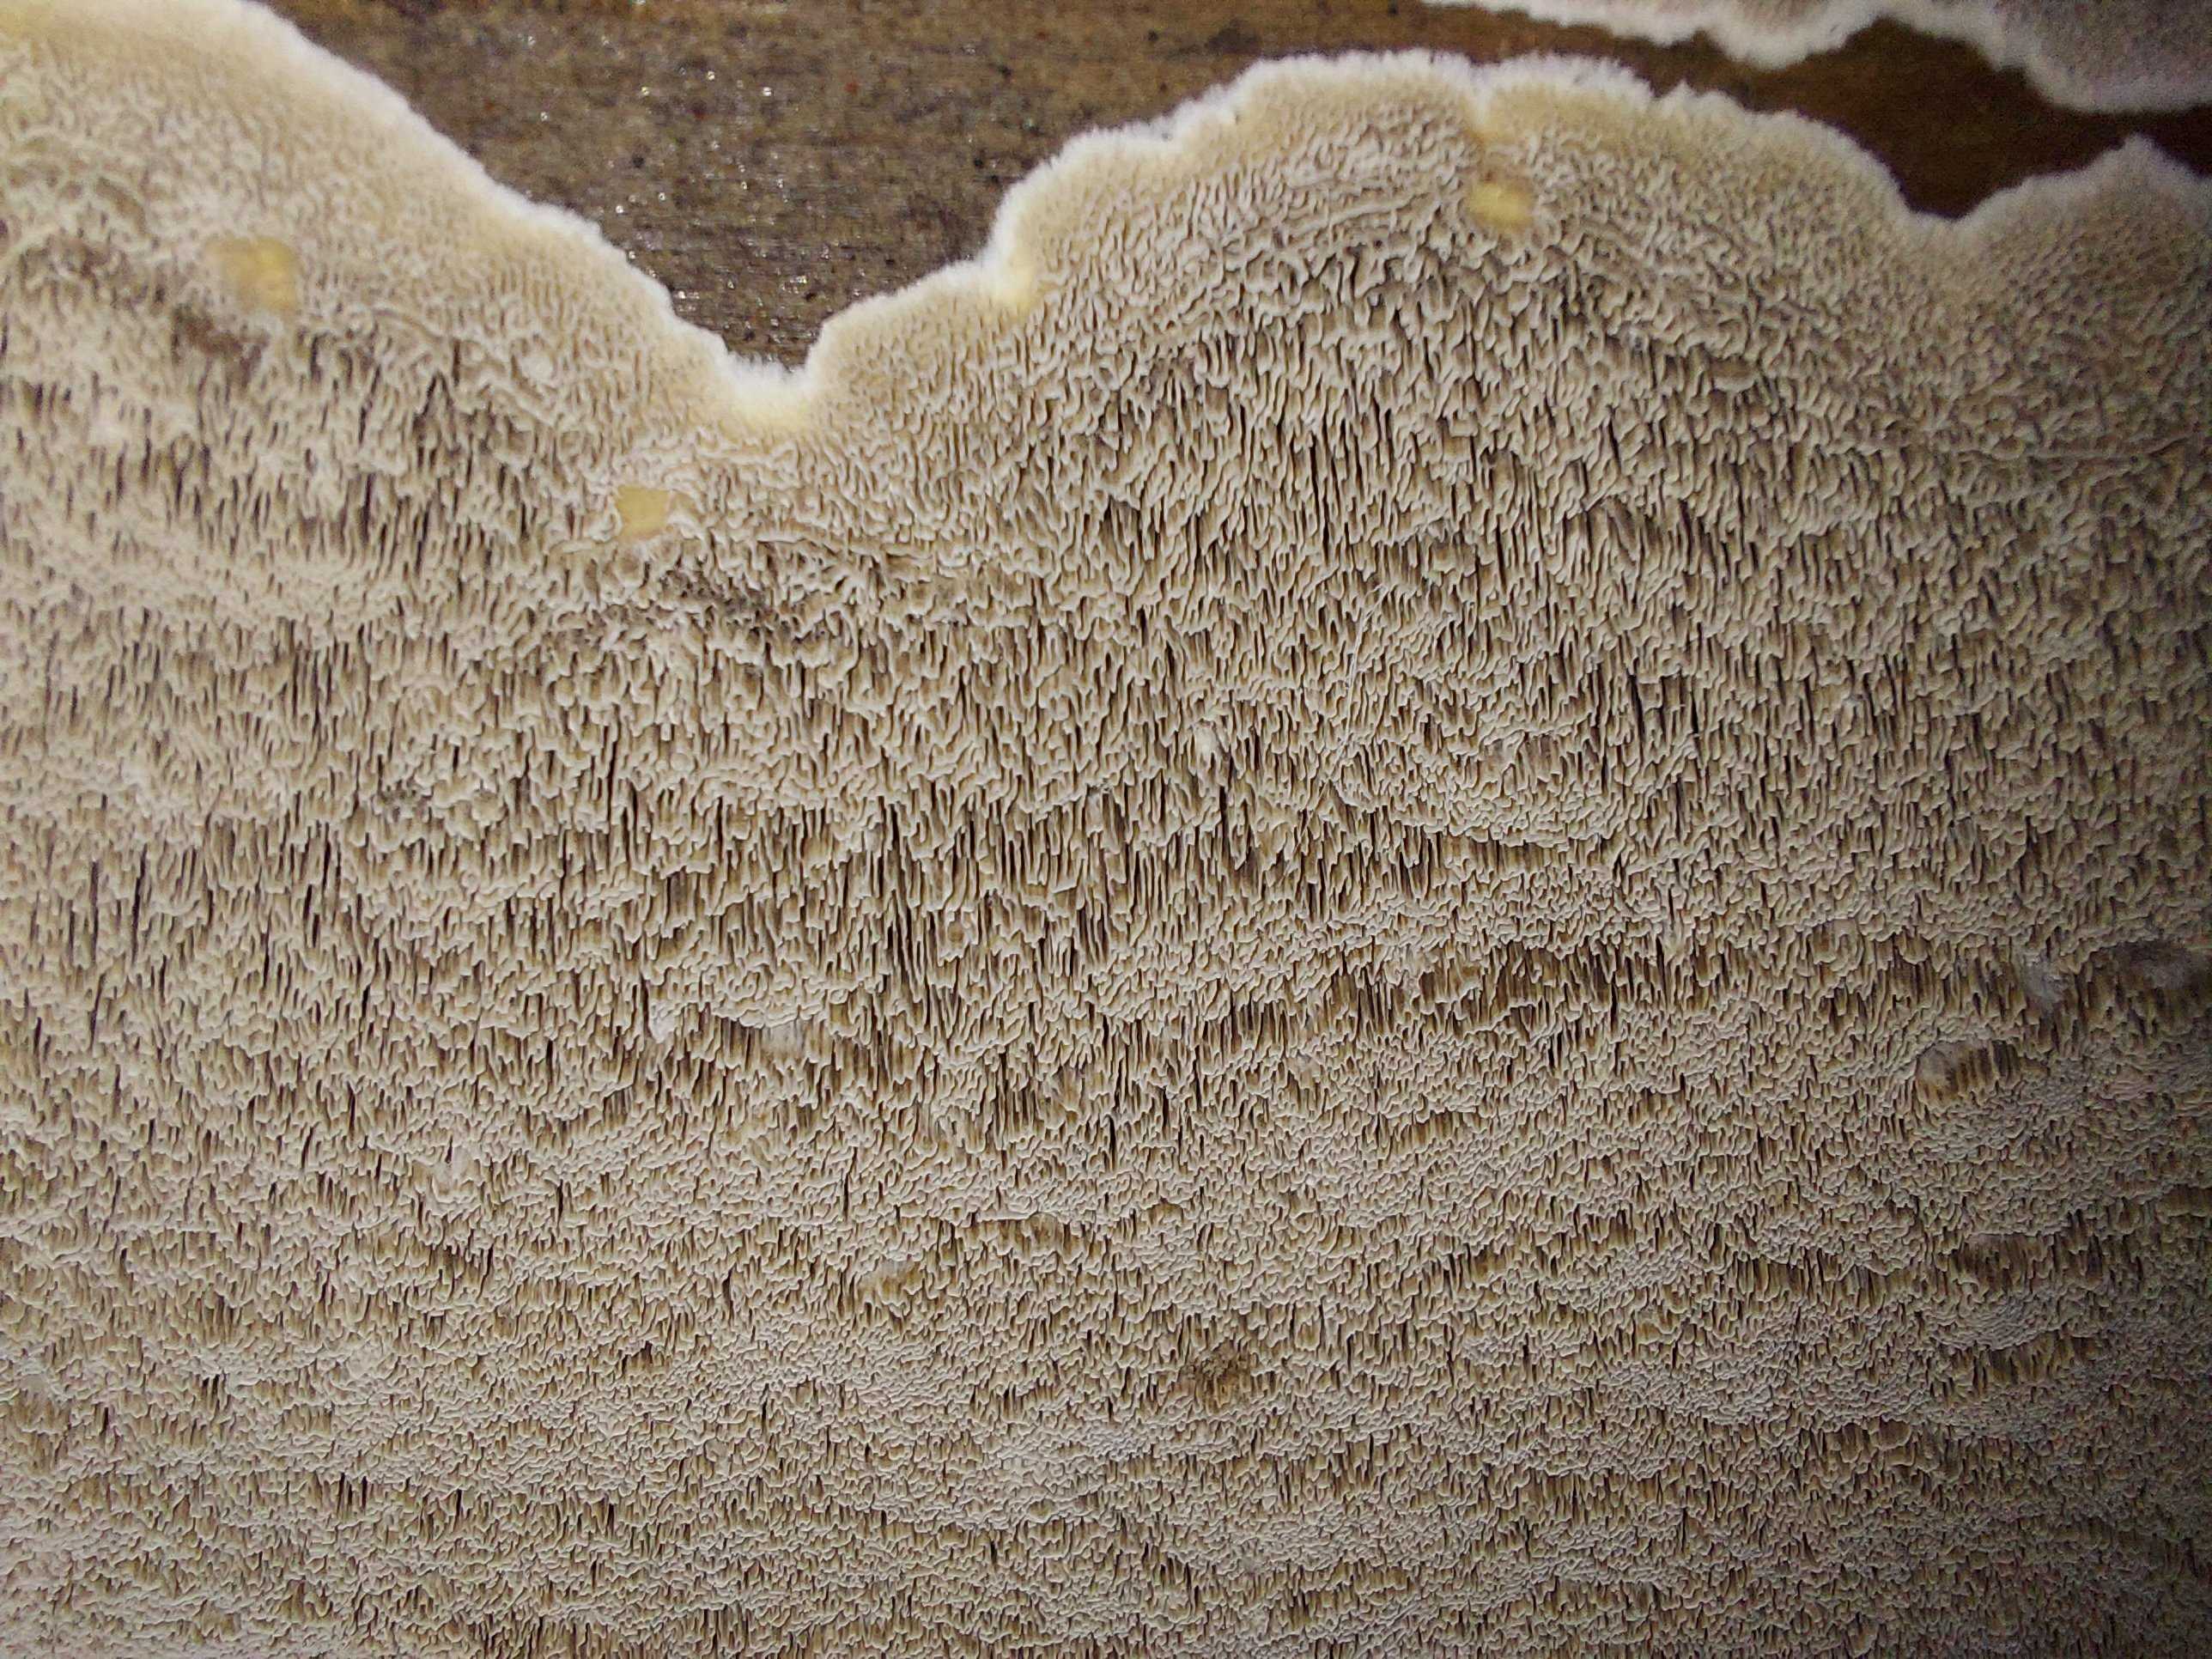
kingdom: Fungi
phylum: Basidiomycota
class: Agaricomycetes
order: Polyporales
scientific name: Polyporales
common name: poresvampordenen
